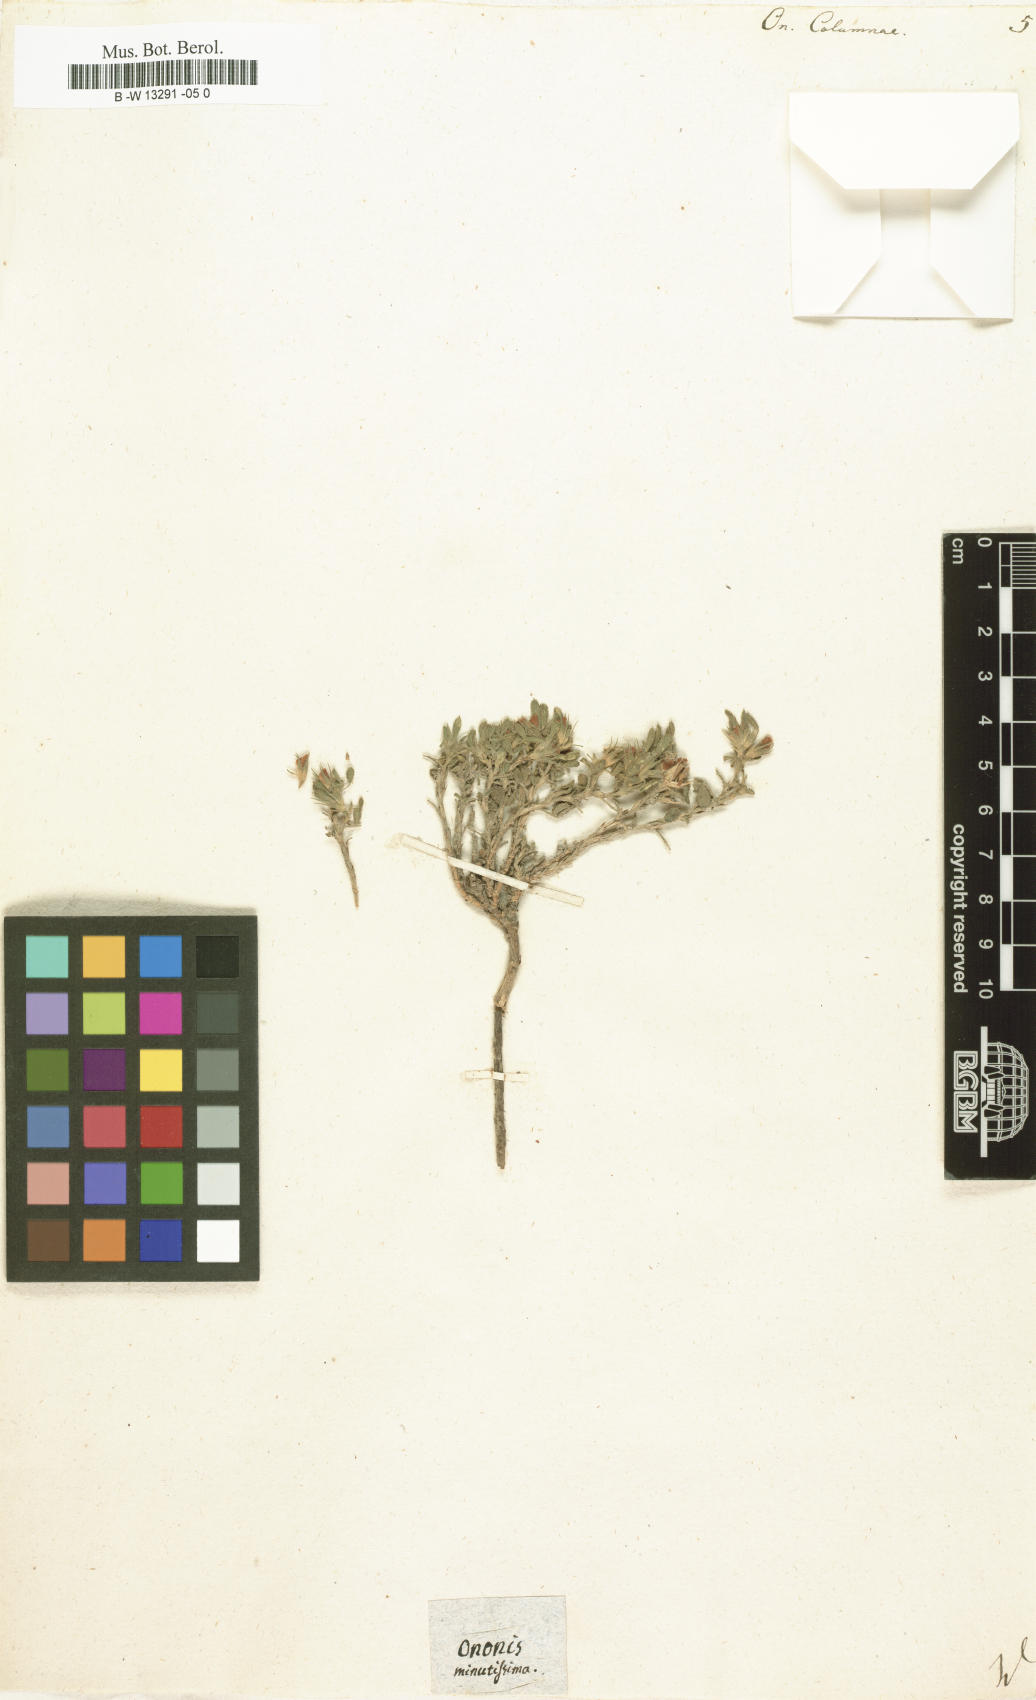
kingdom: Plantae
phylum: Tracheophyta
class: Magnoliopsida
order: Fabales
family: Fabaceae
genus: Ononis
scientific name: Ononis pusilla
